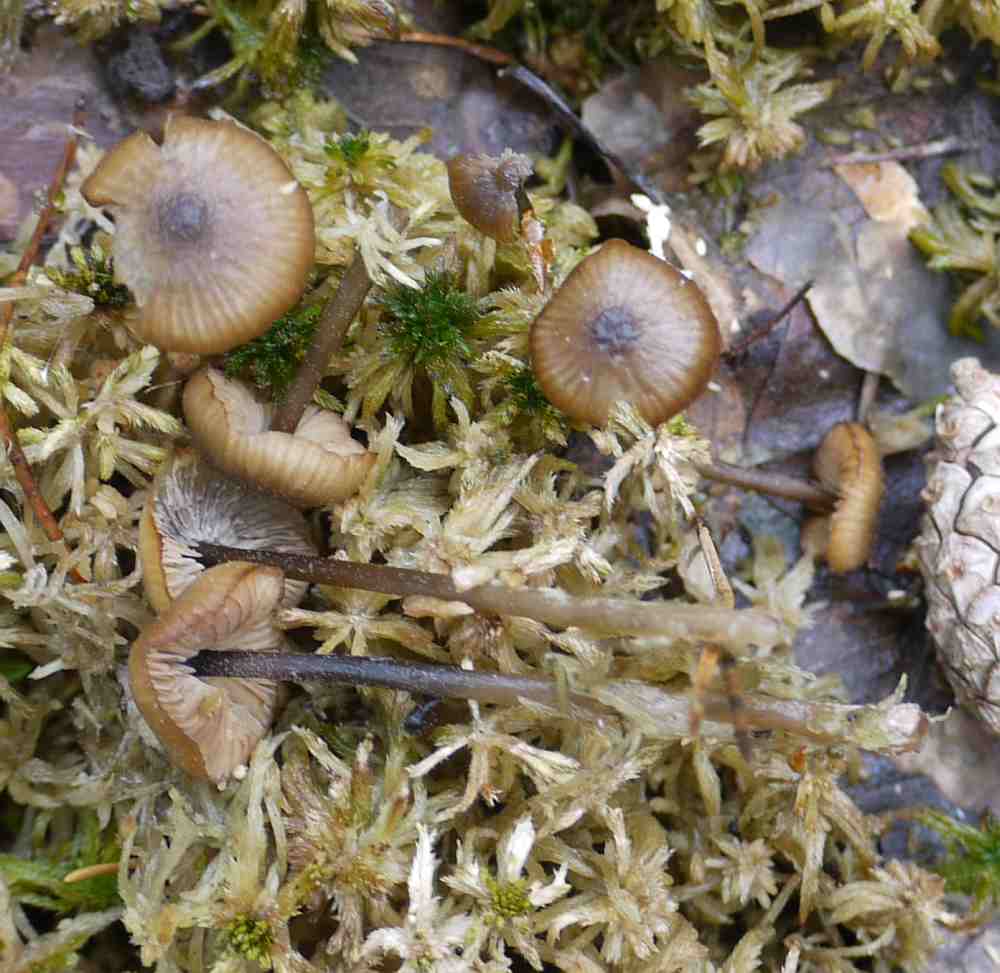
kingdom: Fungi
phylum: Basidiomycota
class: Agaricomycetes
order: Agaricales
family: Lyophyllaceae
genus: Sphagnurus
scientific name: Sphagnurus paluster
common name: tørvemos-gråblad
